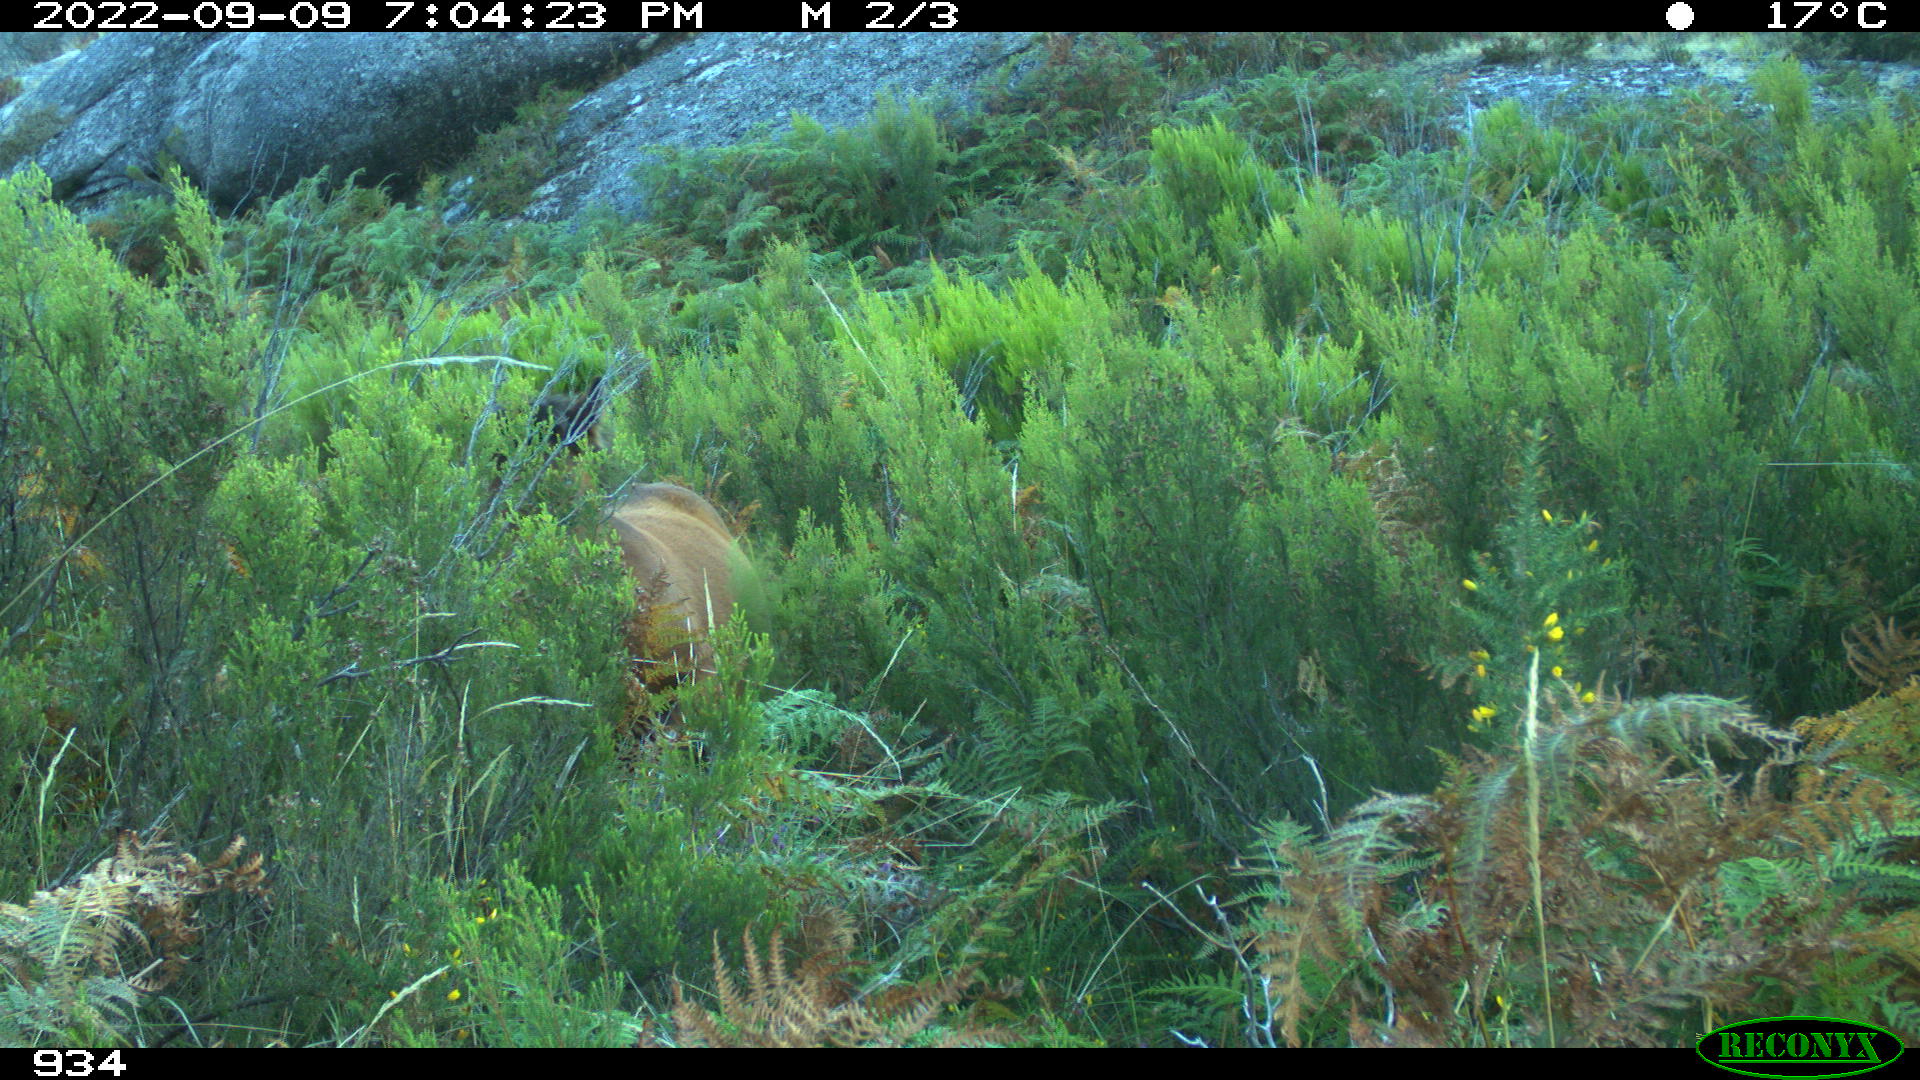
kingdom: Animalia
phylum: Chordata
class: Mammalia
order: Perissodactyla
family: Equidae
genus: Equus
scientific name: Equus caballus
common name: Horse
